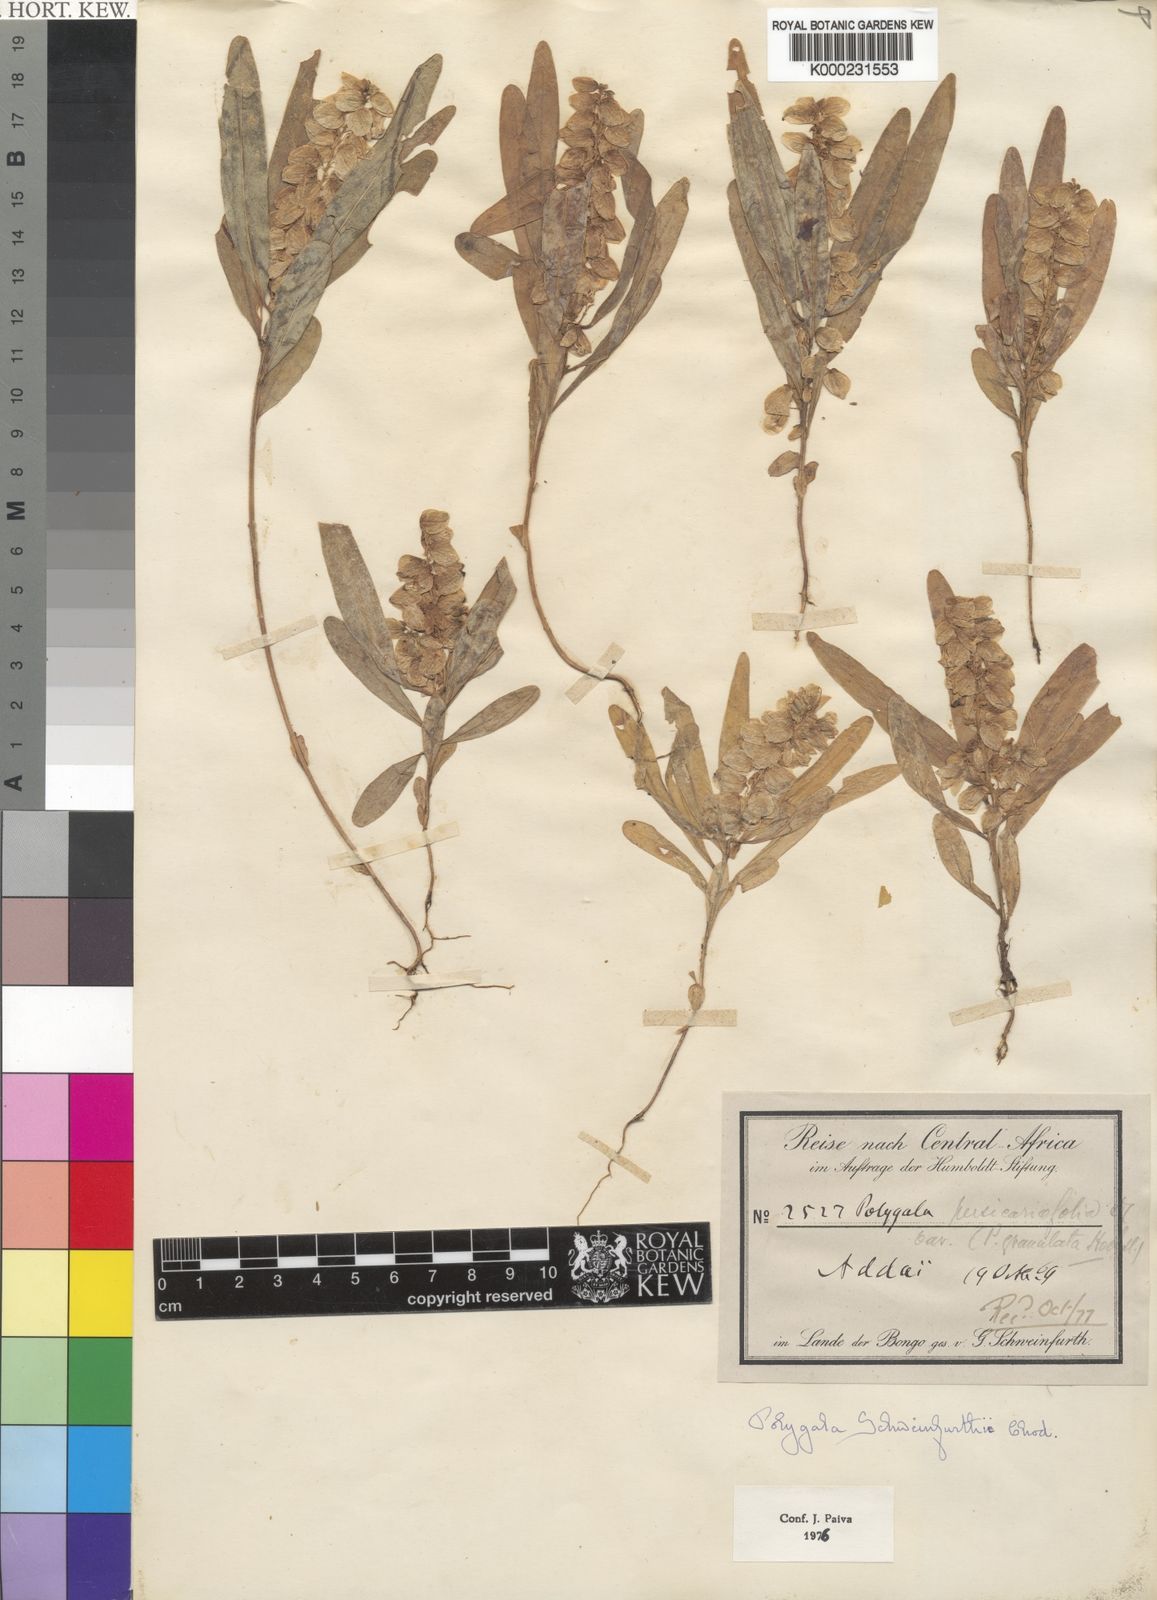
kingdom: Plantae
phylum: Tracheophyta
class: Magnoliopsida
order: Fabales
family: Polygalaceae
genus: Polygala
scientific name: Polygala schweinfurthii
